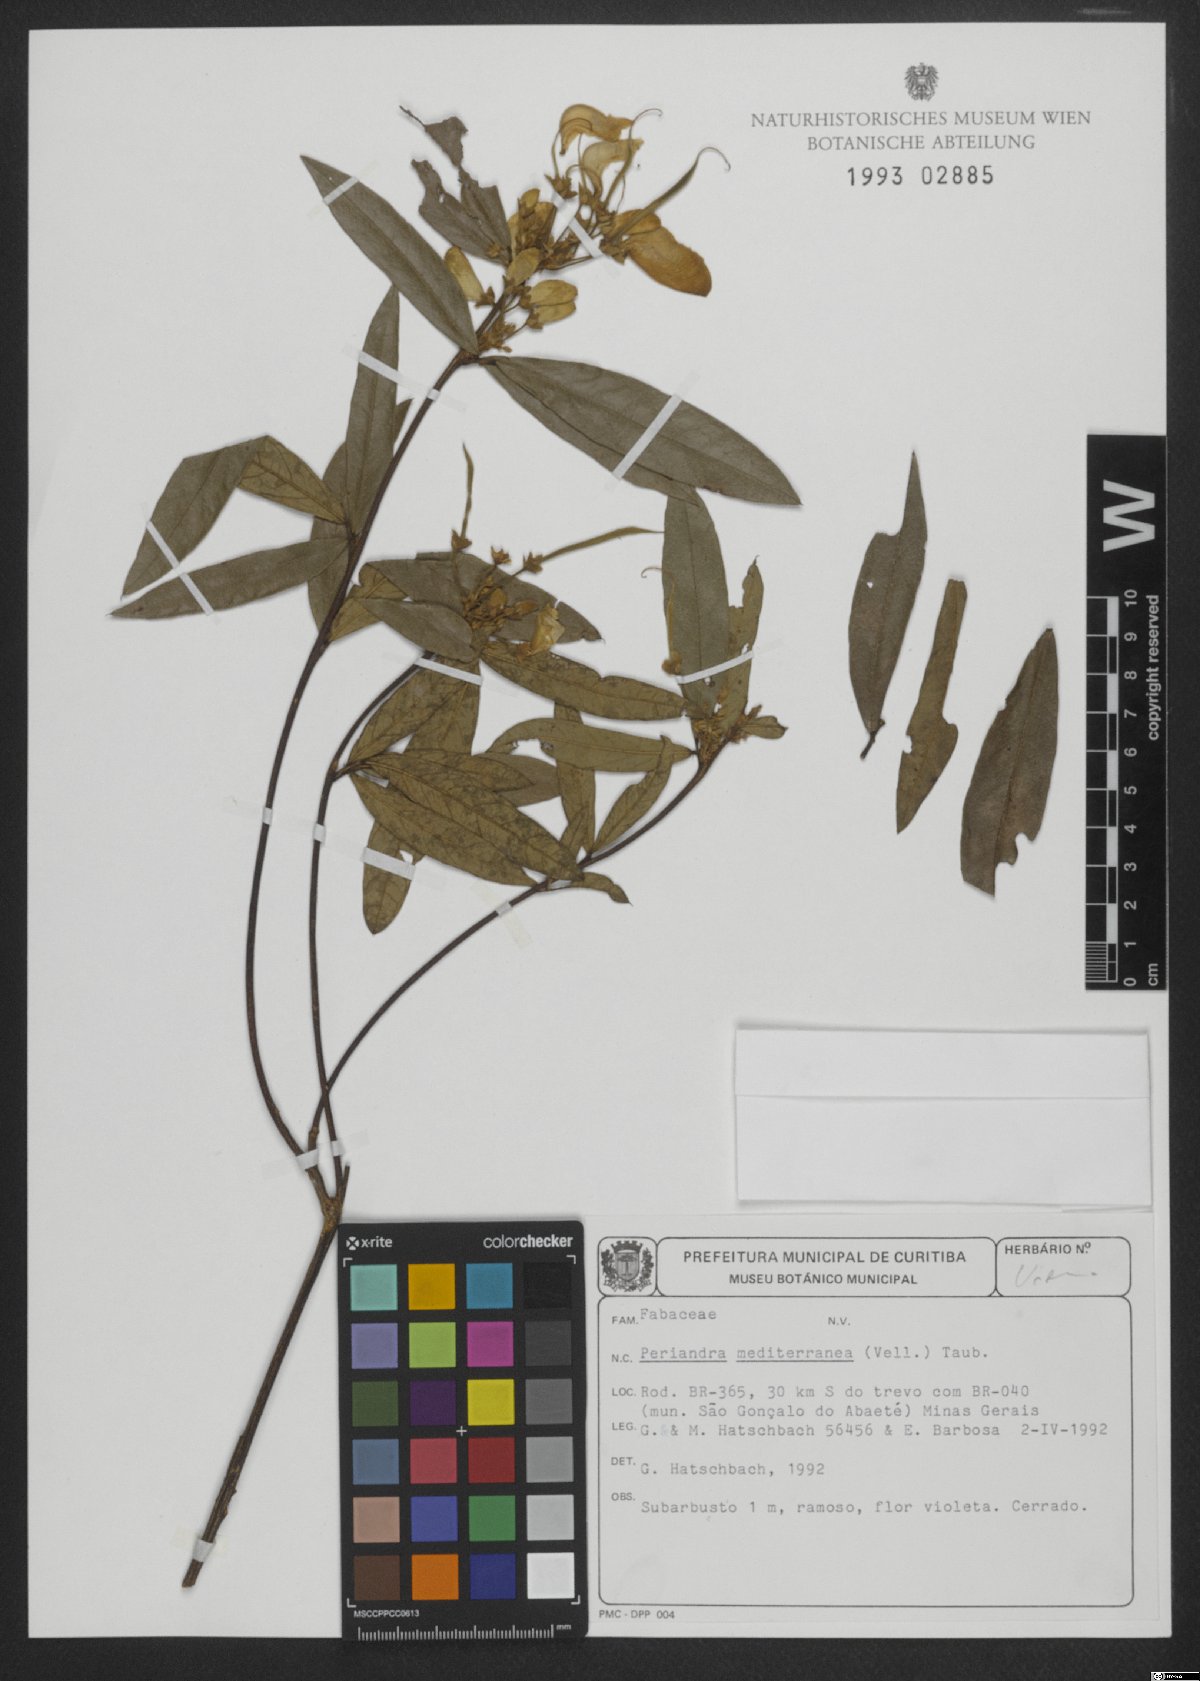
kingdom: Plantae
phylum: Tracheophyta
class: Magnoliopsida
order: Fabales
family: Fabaceae
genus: Periandra
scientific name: Periandra mediterranea
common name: Brazilian licorice
